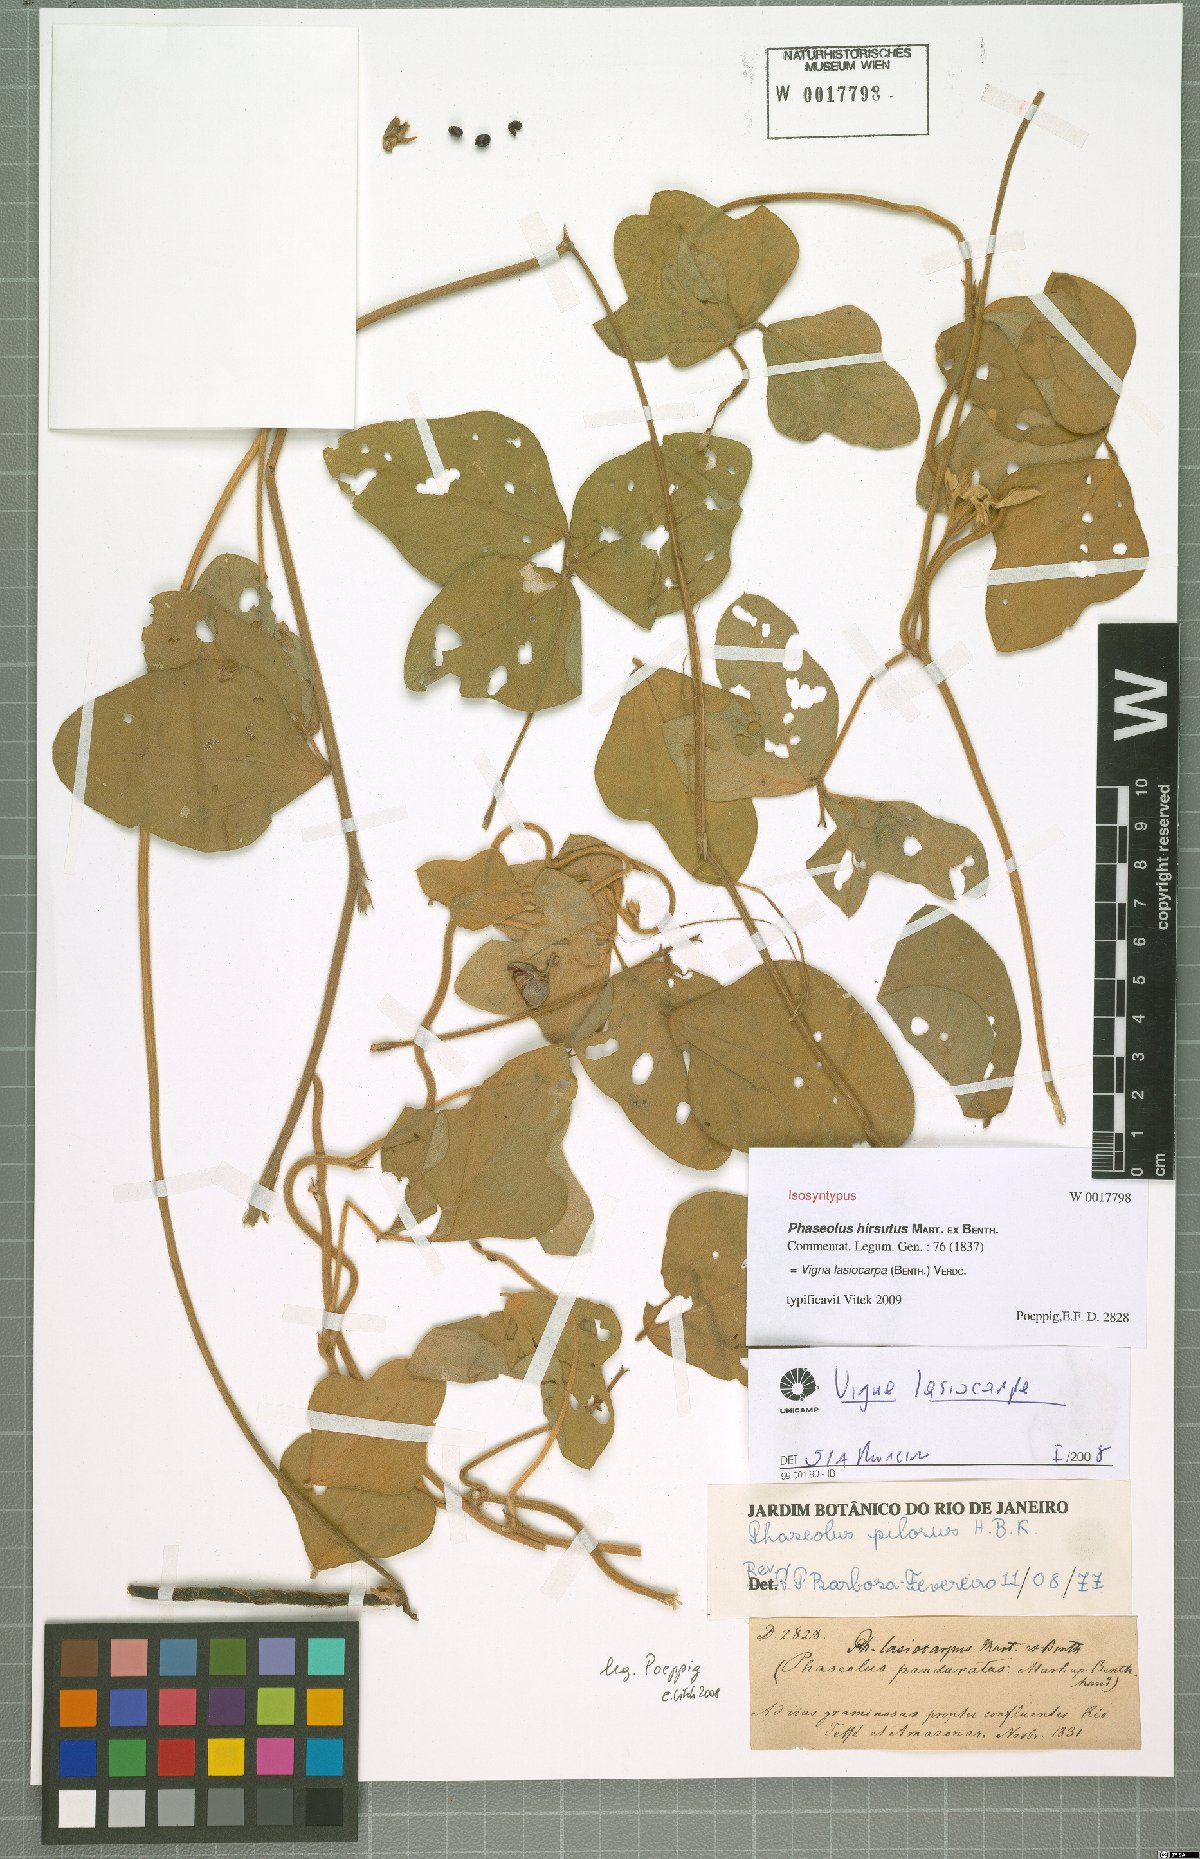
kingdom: Plantae
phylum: Tracheophyta
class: Magnoliopsida
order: Fabales
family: Fabaceae
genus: Vigna
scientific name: Vigna lasiocarpa
